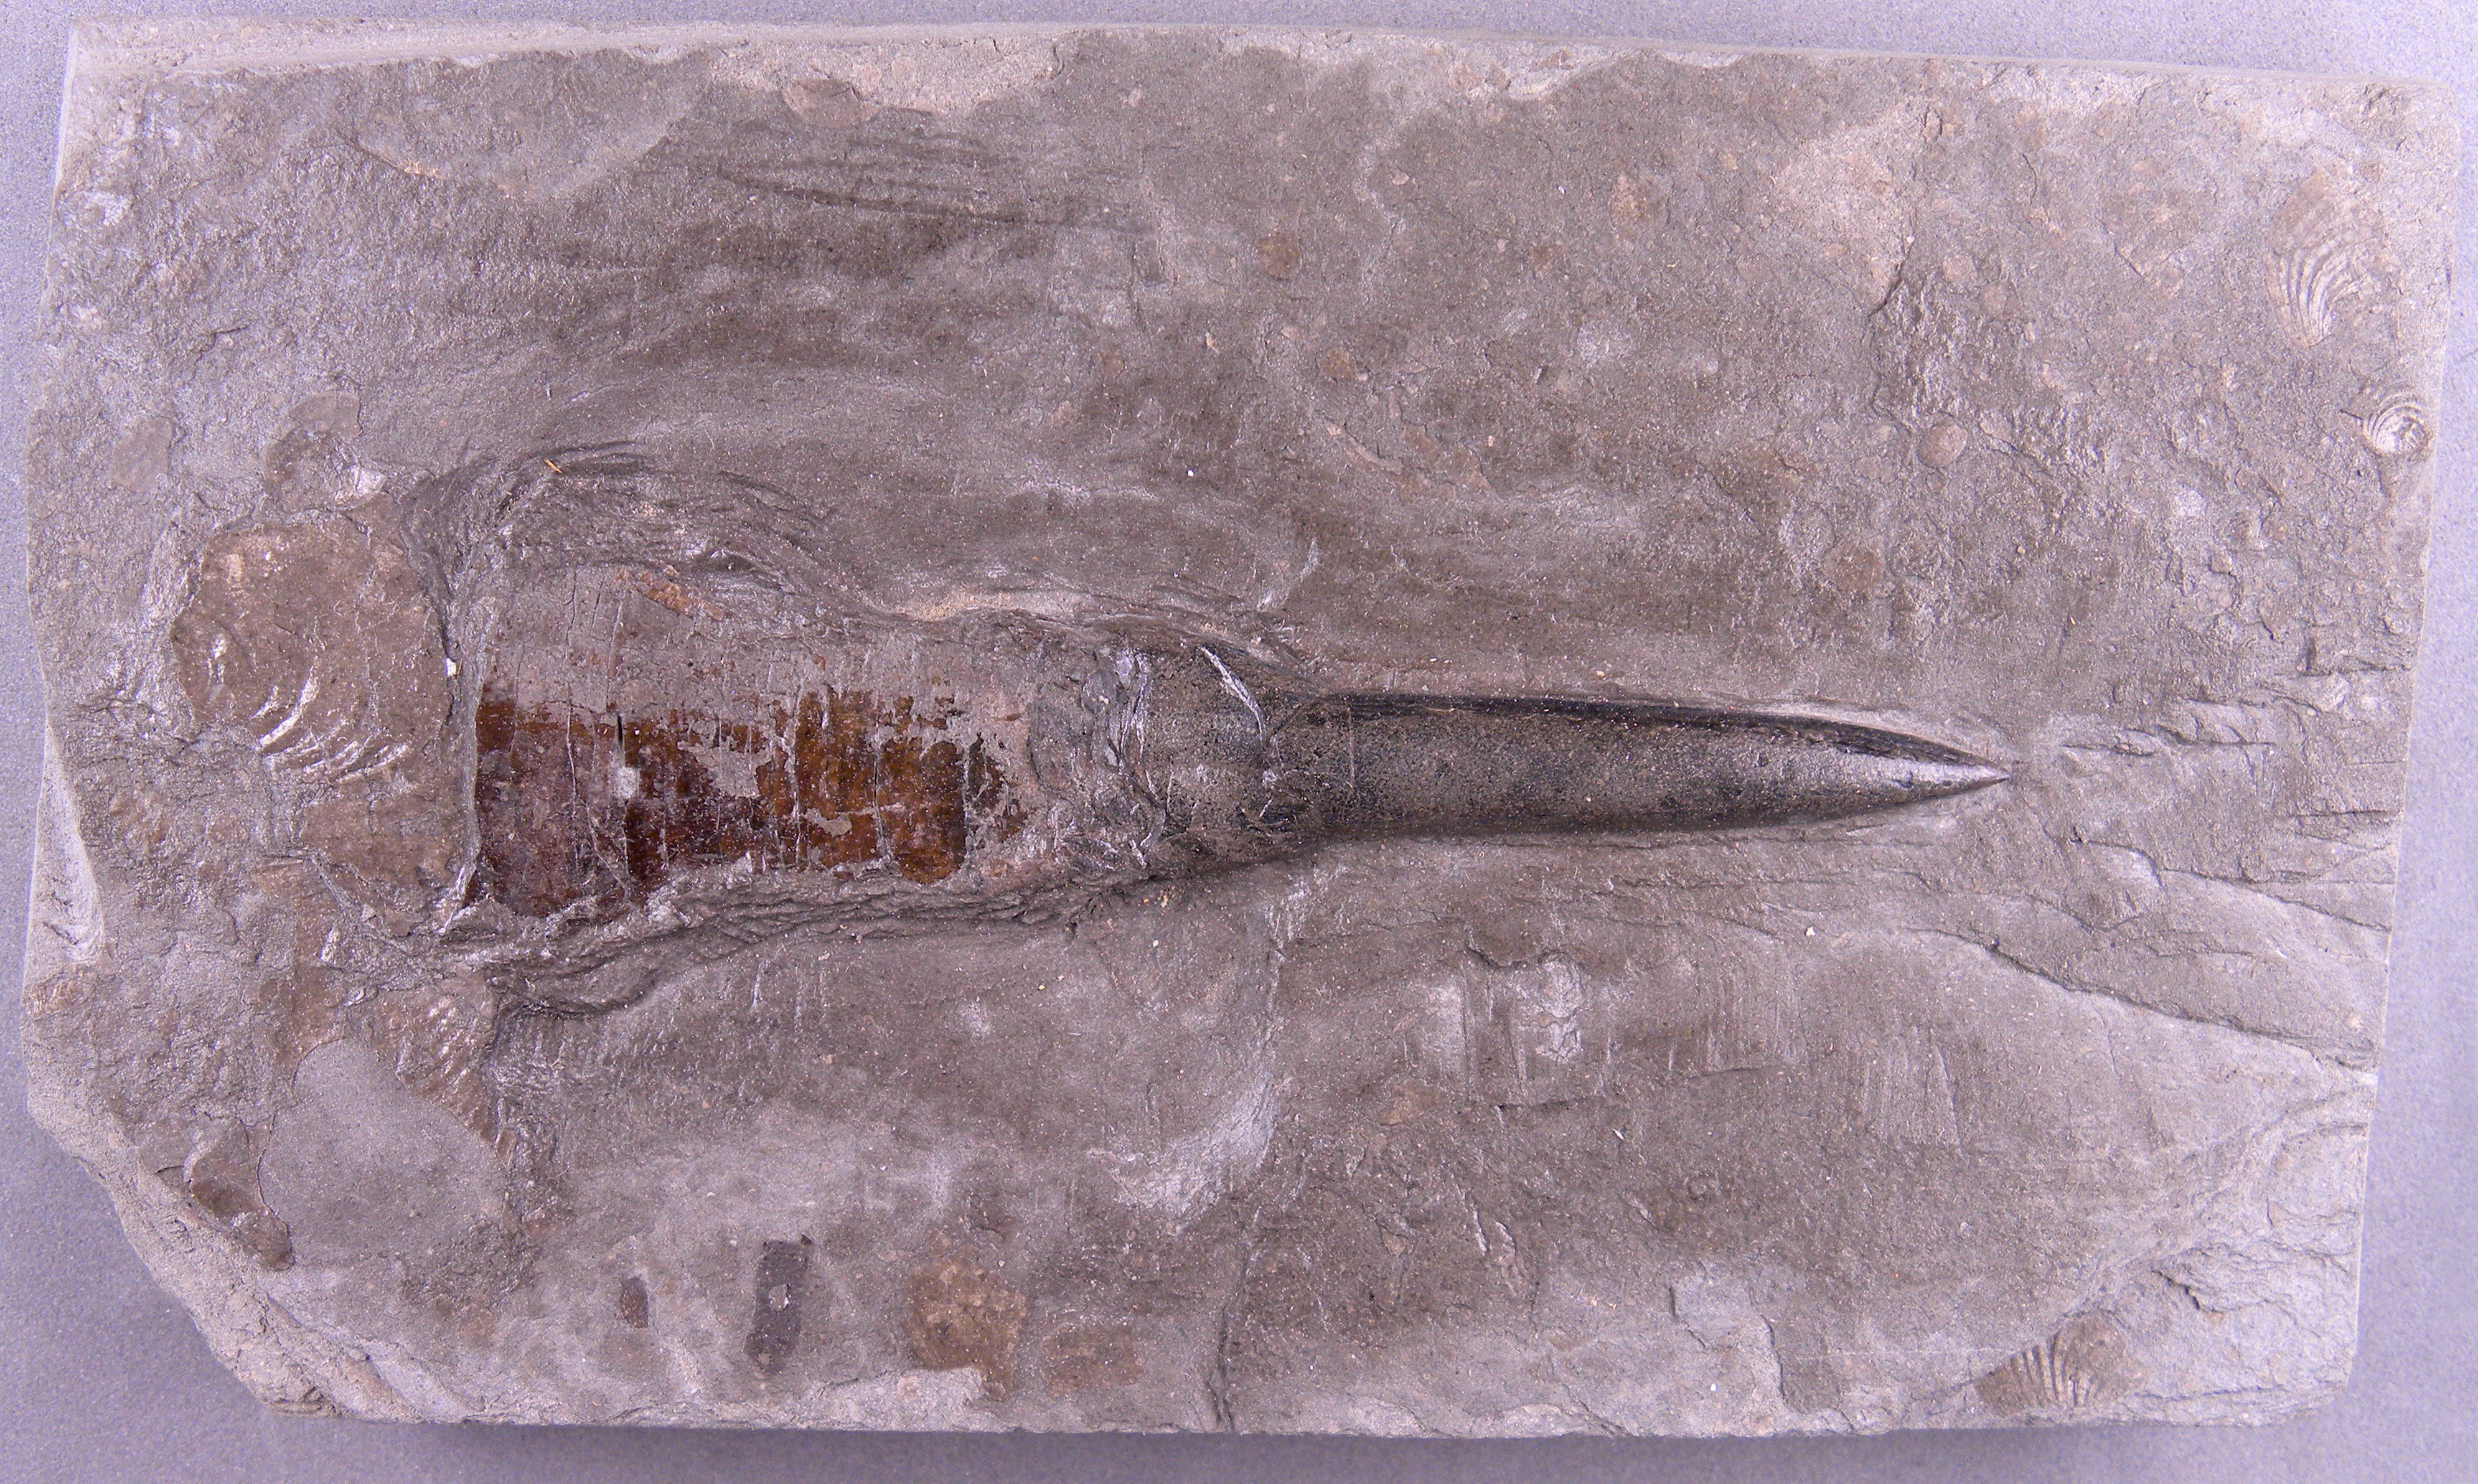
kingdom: Animalia
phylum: Mollusca
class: Cephalopoda
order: Belemnitida
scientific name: Belemnitida
